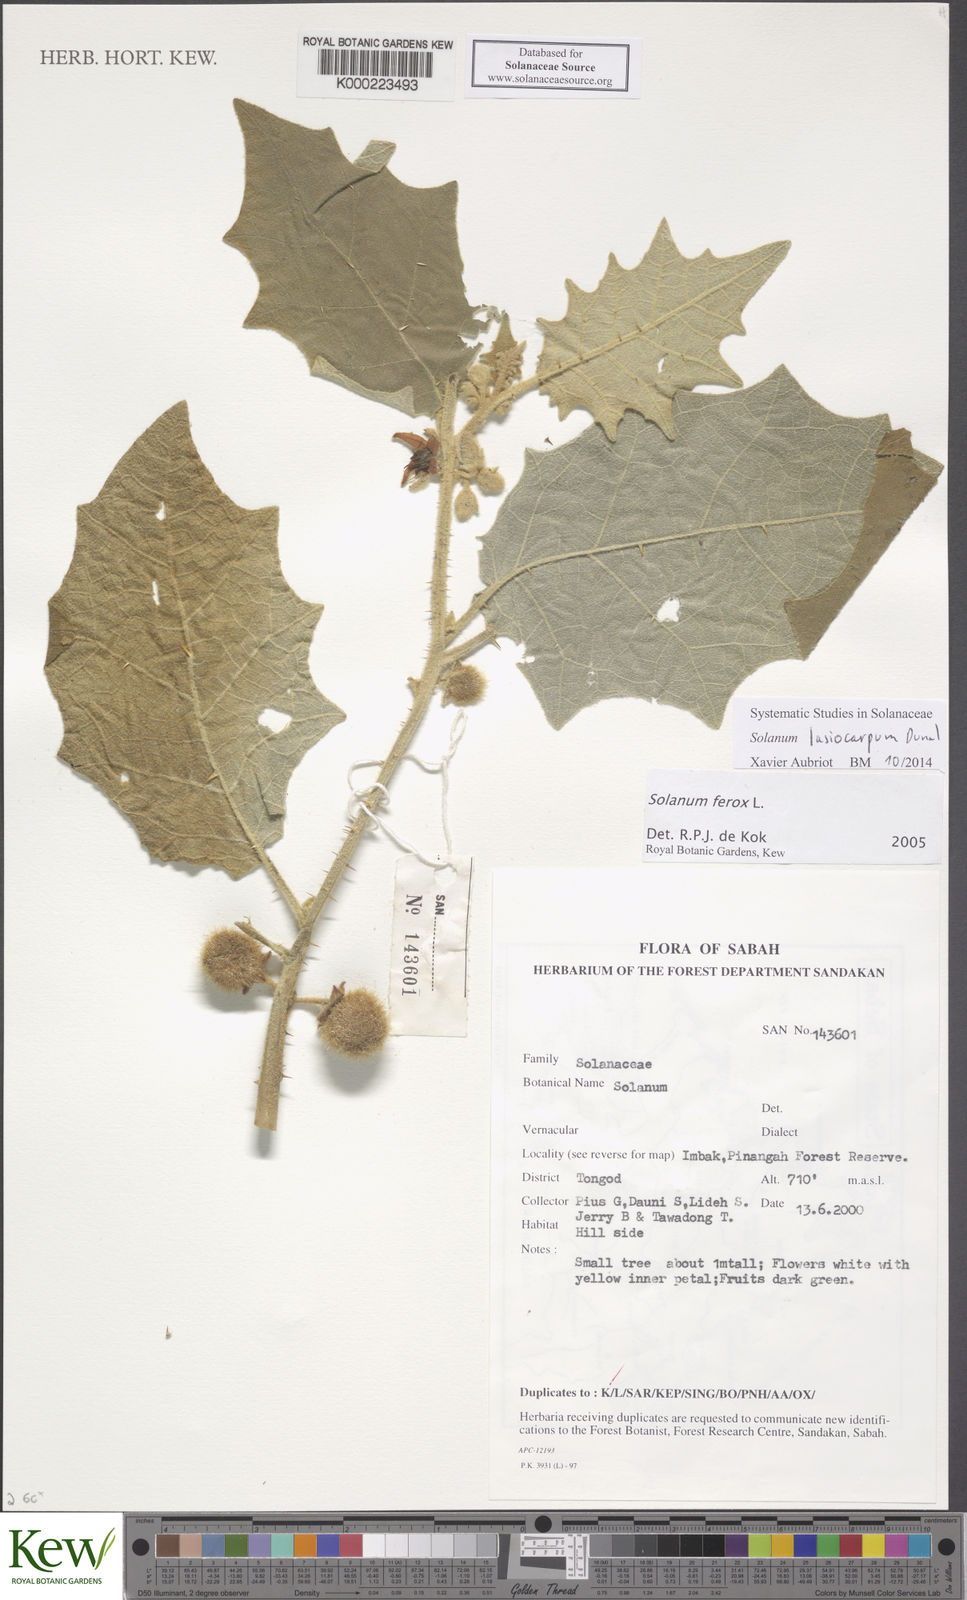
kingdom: Plantae
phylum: Tracheophyta
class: Magnoliopsida
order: Solanales
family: Solanaceae
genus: Solanum
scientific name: Solanum
